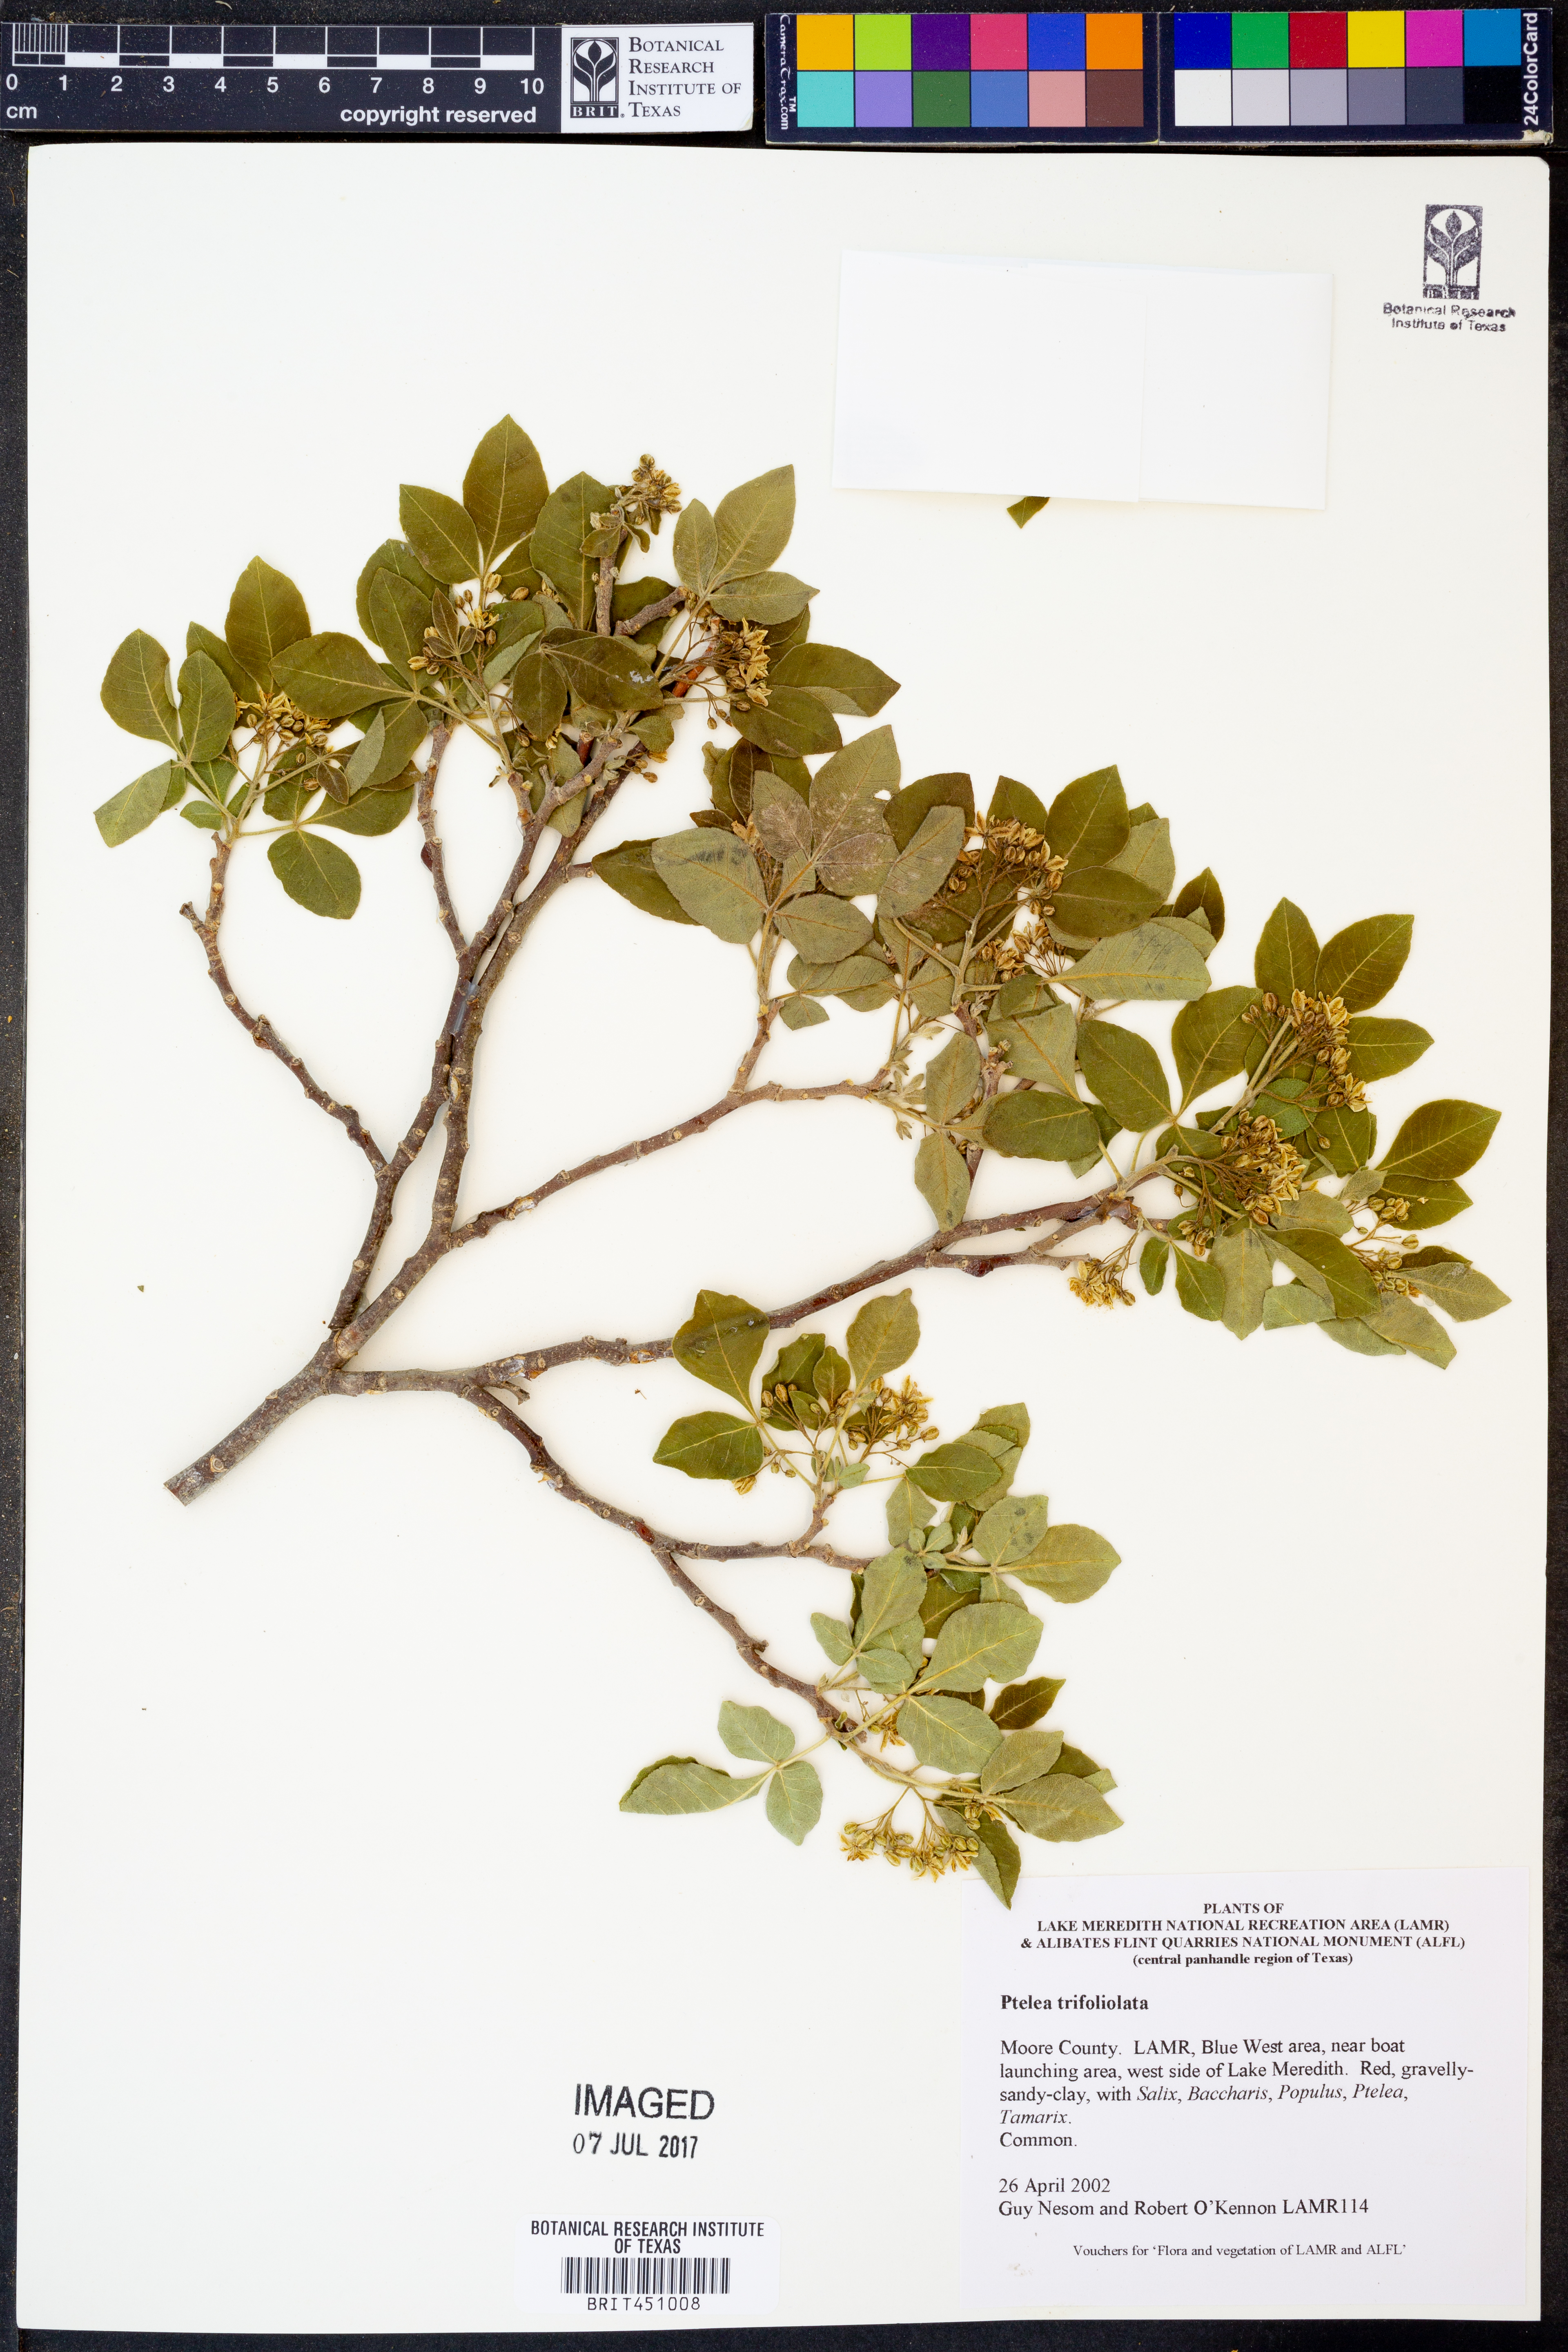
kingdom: Plantae
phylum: Tracheophyta
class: Magnoliopsida
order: Sapindales
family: Rutaceae
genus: Ptelea
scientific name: Ptelea trifoliata
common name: Common hop-tree
